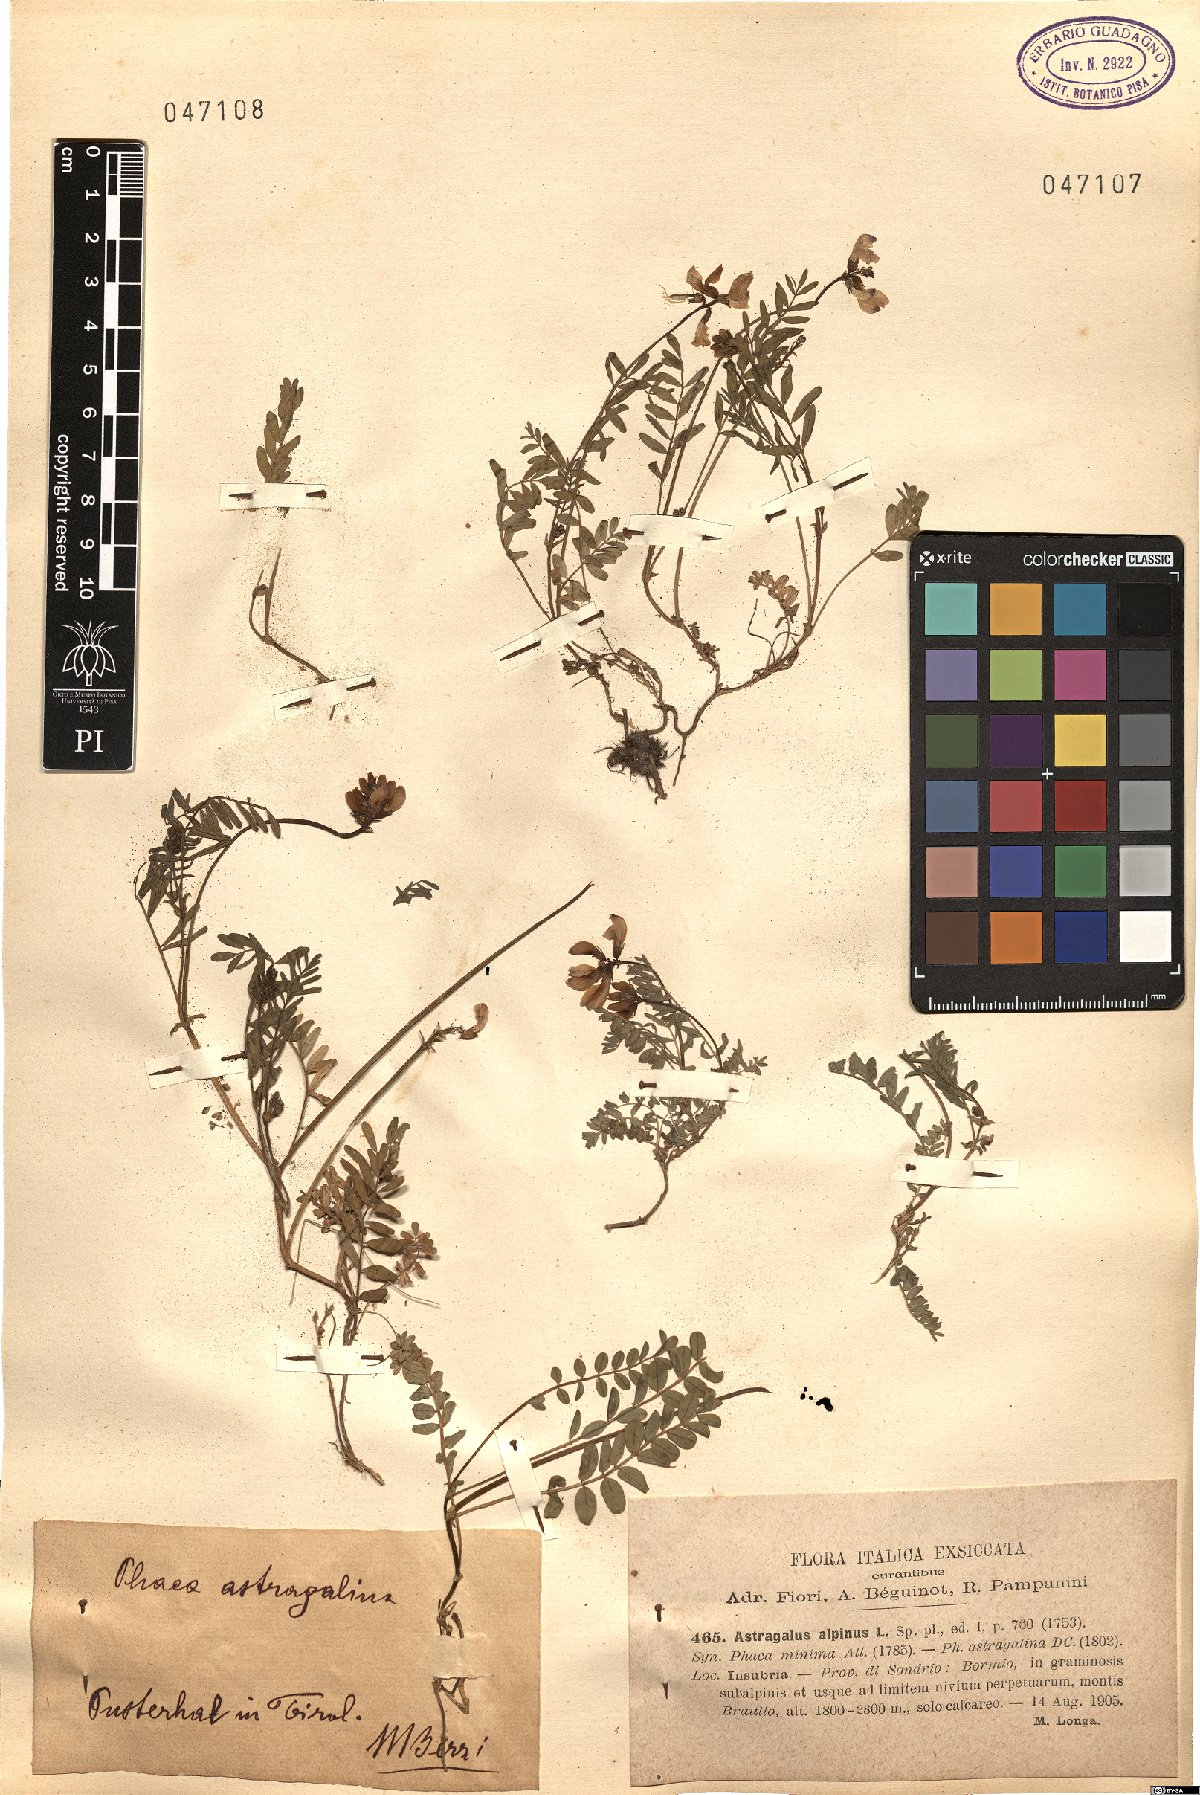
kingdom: Plantae
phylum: Tracheophyta
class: Magnoliopsida
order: Fabales
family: Fabaceae
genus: Astragalus
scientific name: Astragalus alpinus
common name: Alpine milk-vetch
